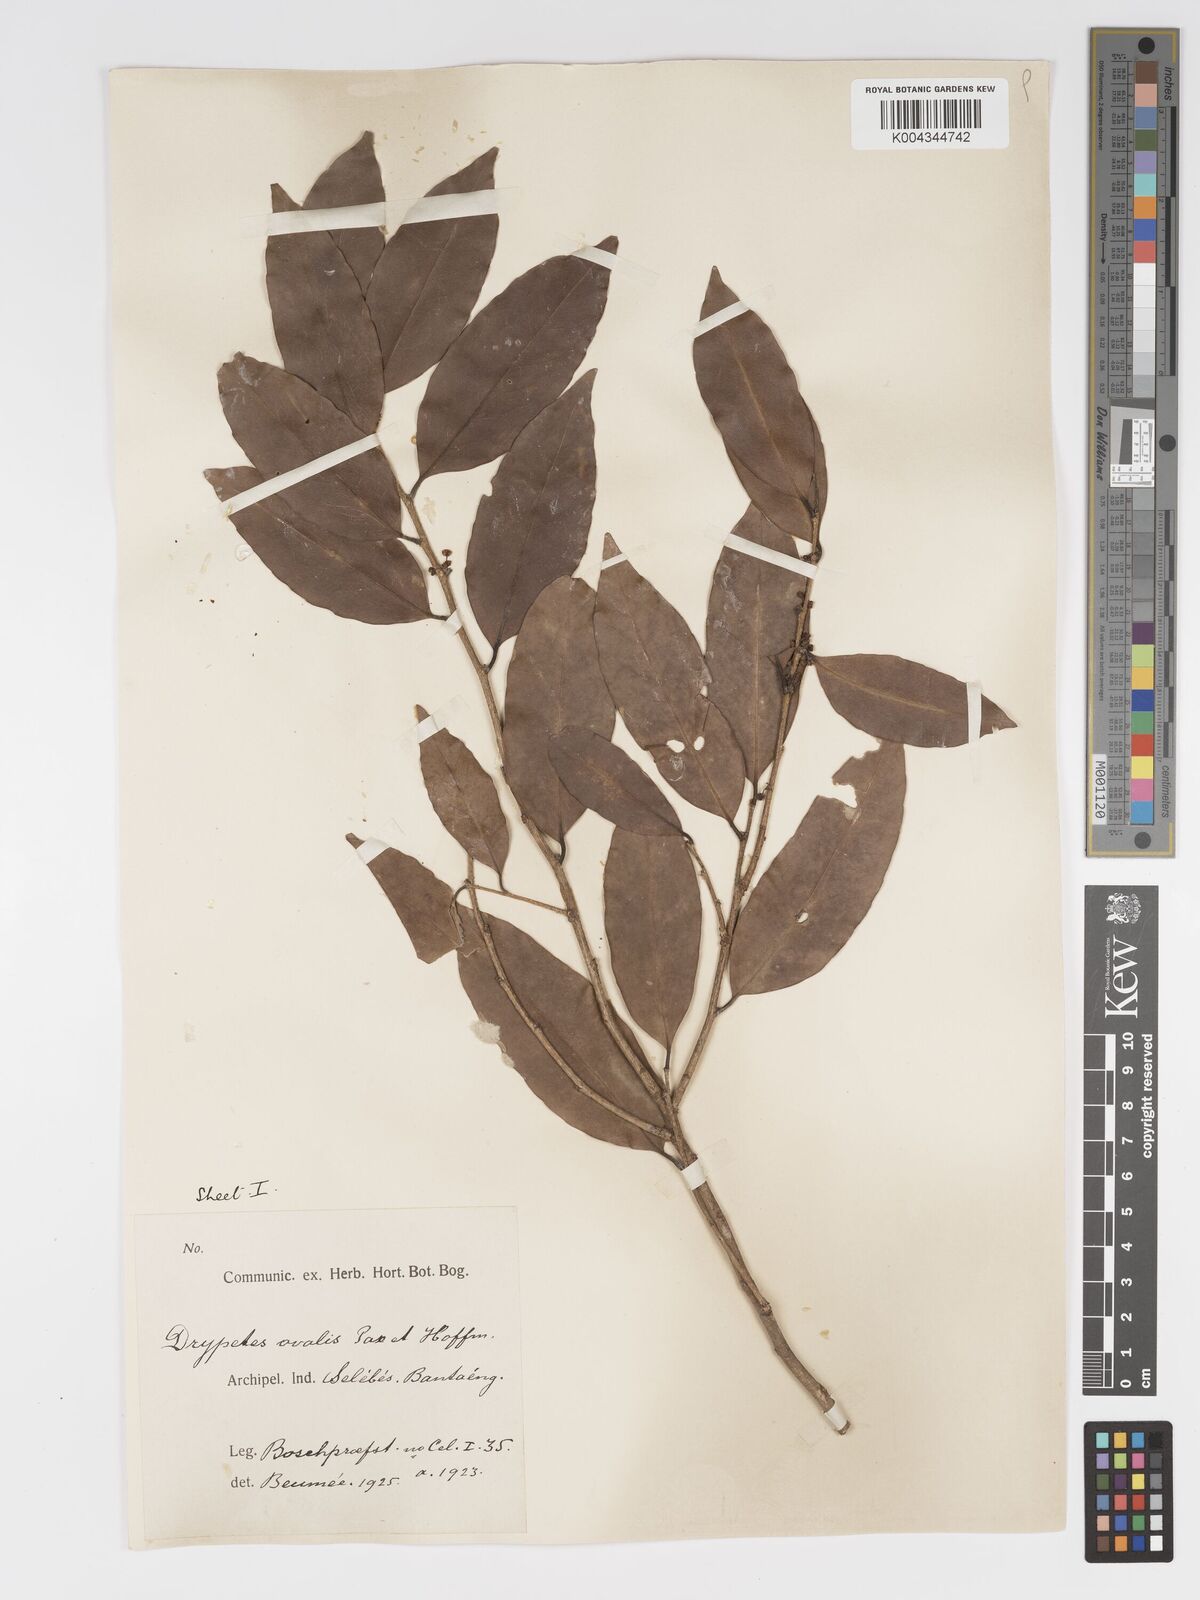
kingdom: Plantae
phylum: Tracheophyta
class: Magnoliopsida
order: Malpighiales
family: Putranjivaceae
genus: Drypetes
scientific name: Drypetes ovalis
